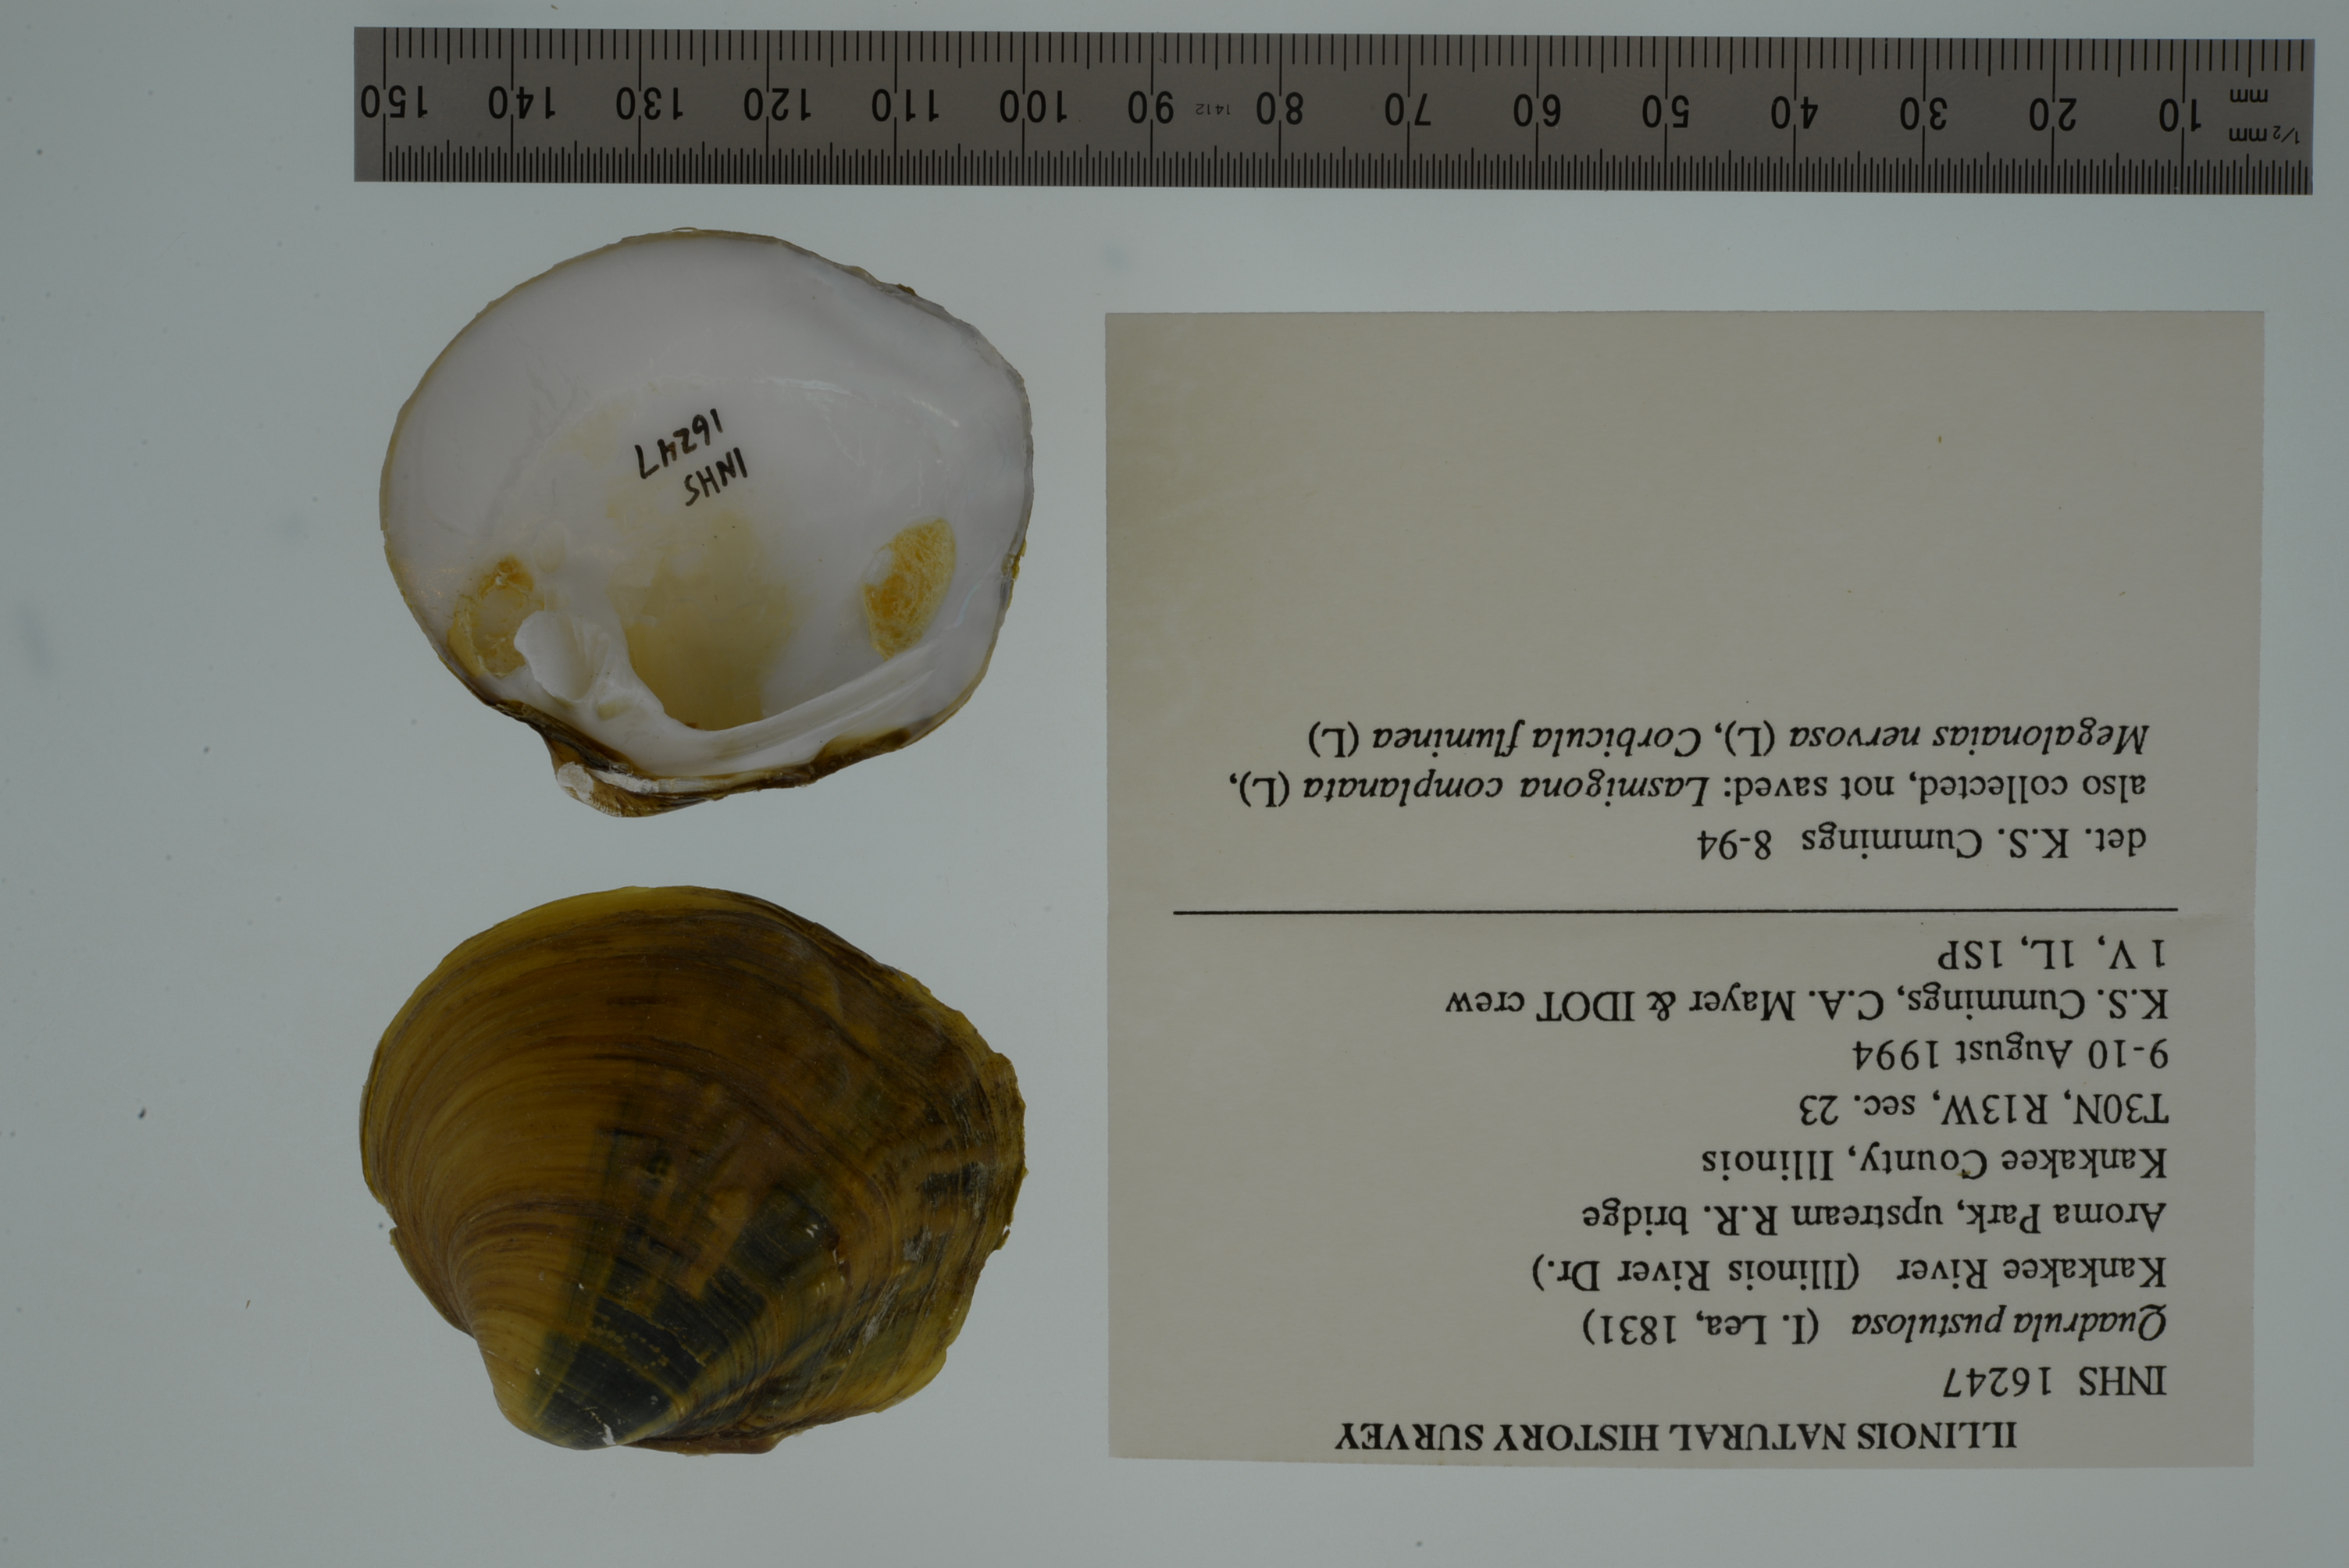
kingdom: Animalia
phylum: Mollusca
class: Bivalvia
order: Unionida
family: Unionidae
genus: Cyclonaias
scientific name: Cyclonaias pustulosa
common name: Pimpleback
